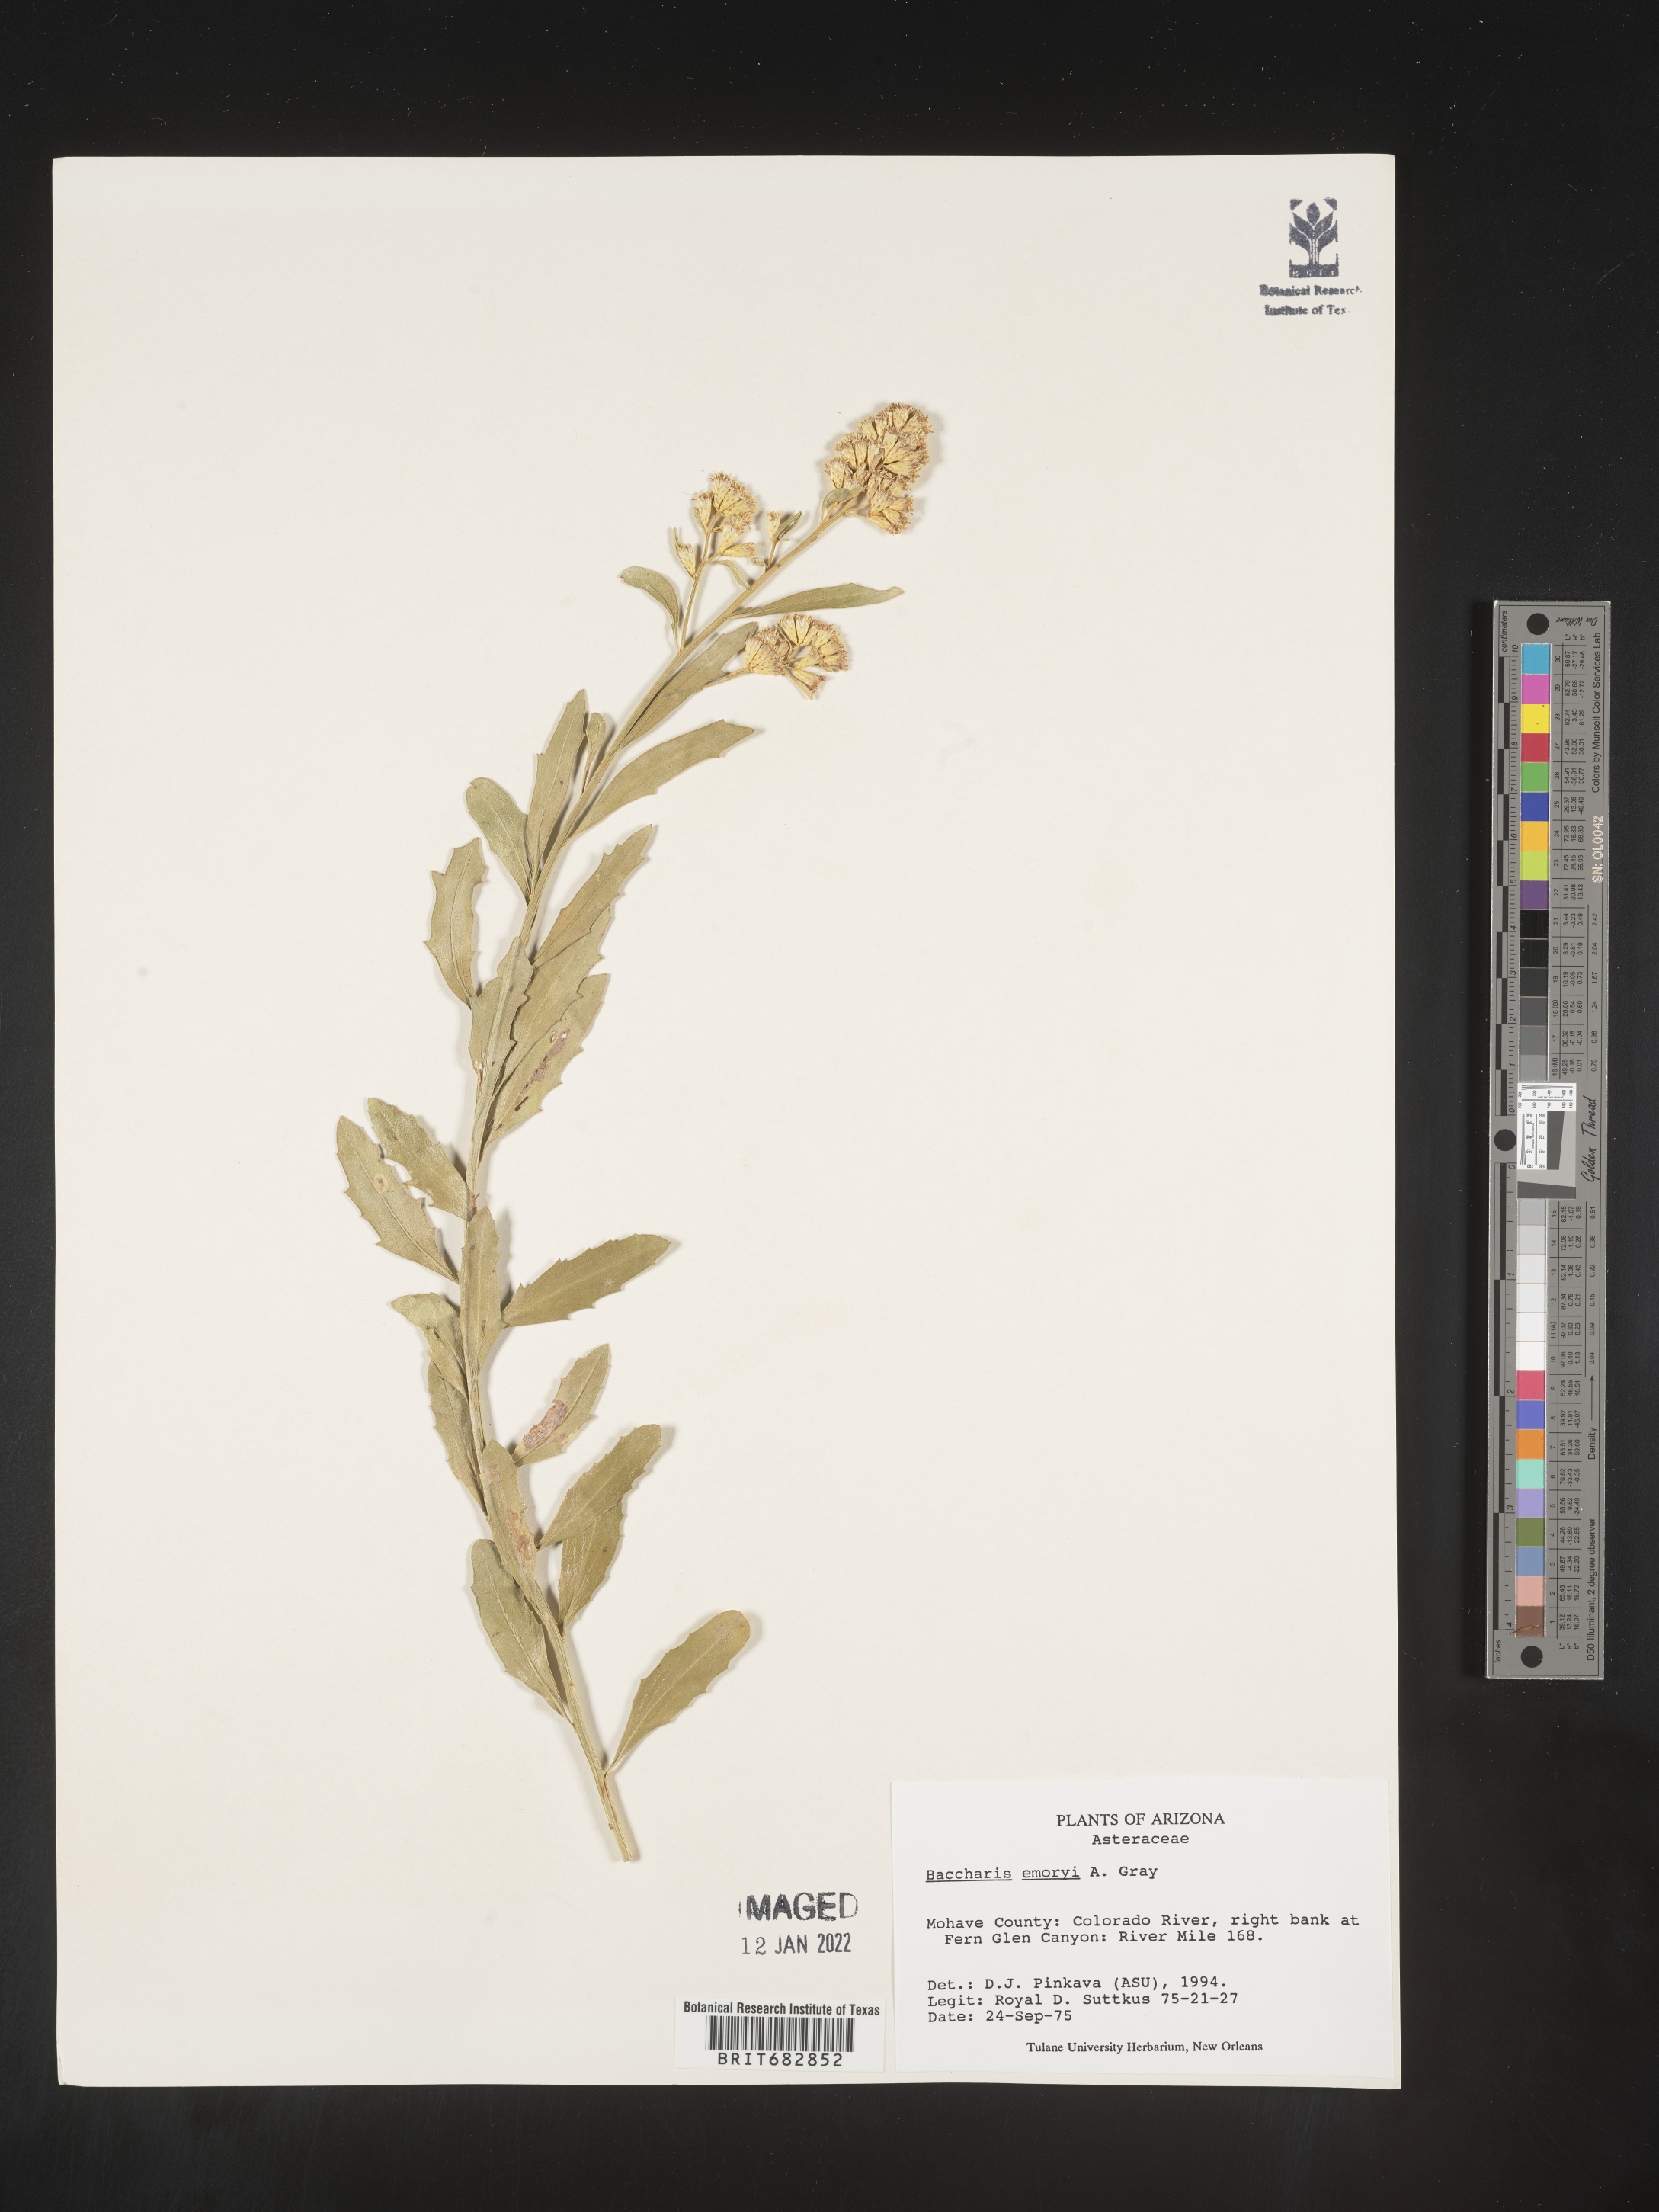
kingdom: Plantae
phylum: Tracheophyta
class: Magnoliopsida
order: Asterales
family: Asteraceae
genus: Baccharis
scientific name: Baccharis salicina
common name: Willow baccharis
